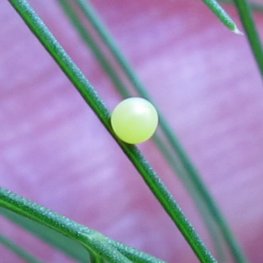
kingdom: Animalia
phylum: Arthropoda
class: Insecta
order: Lepidoptera
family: Papilionidae
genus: Papilio
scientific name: Papilio polyxenes
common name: Black Swallowtail
